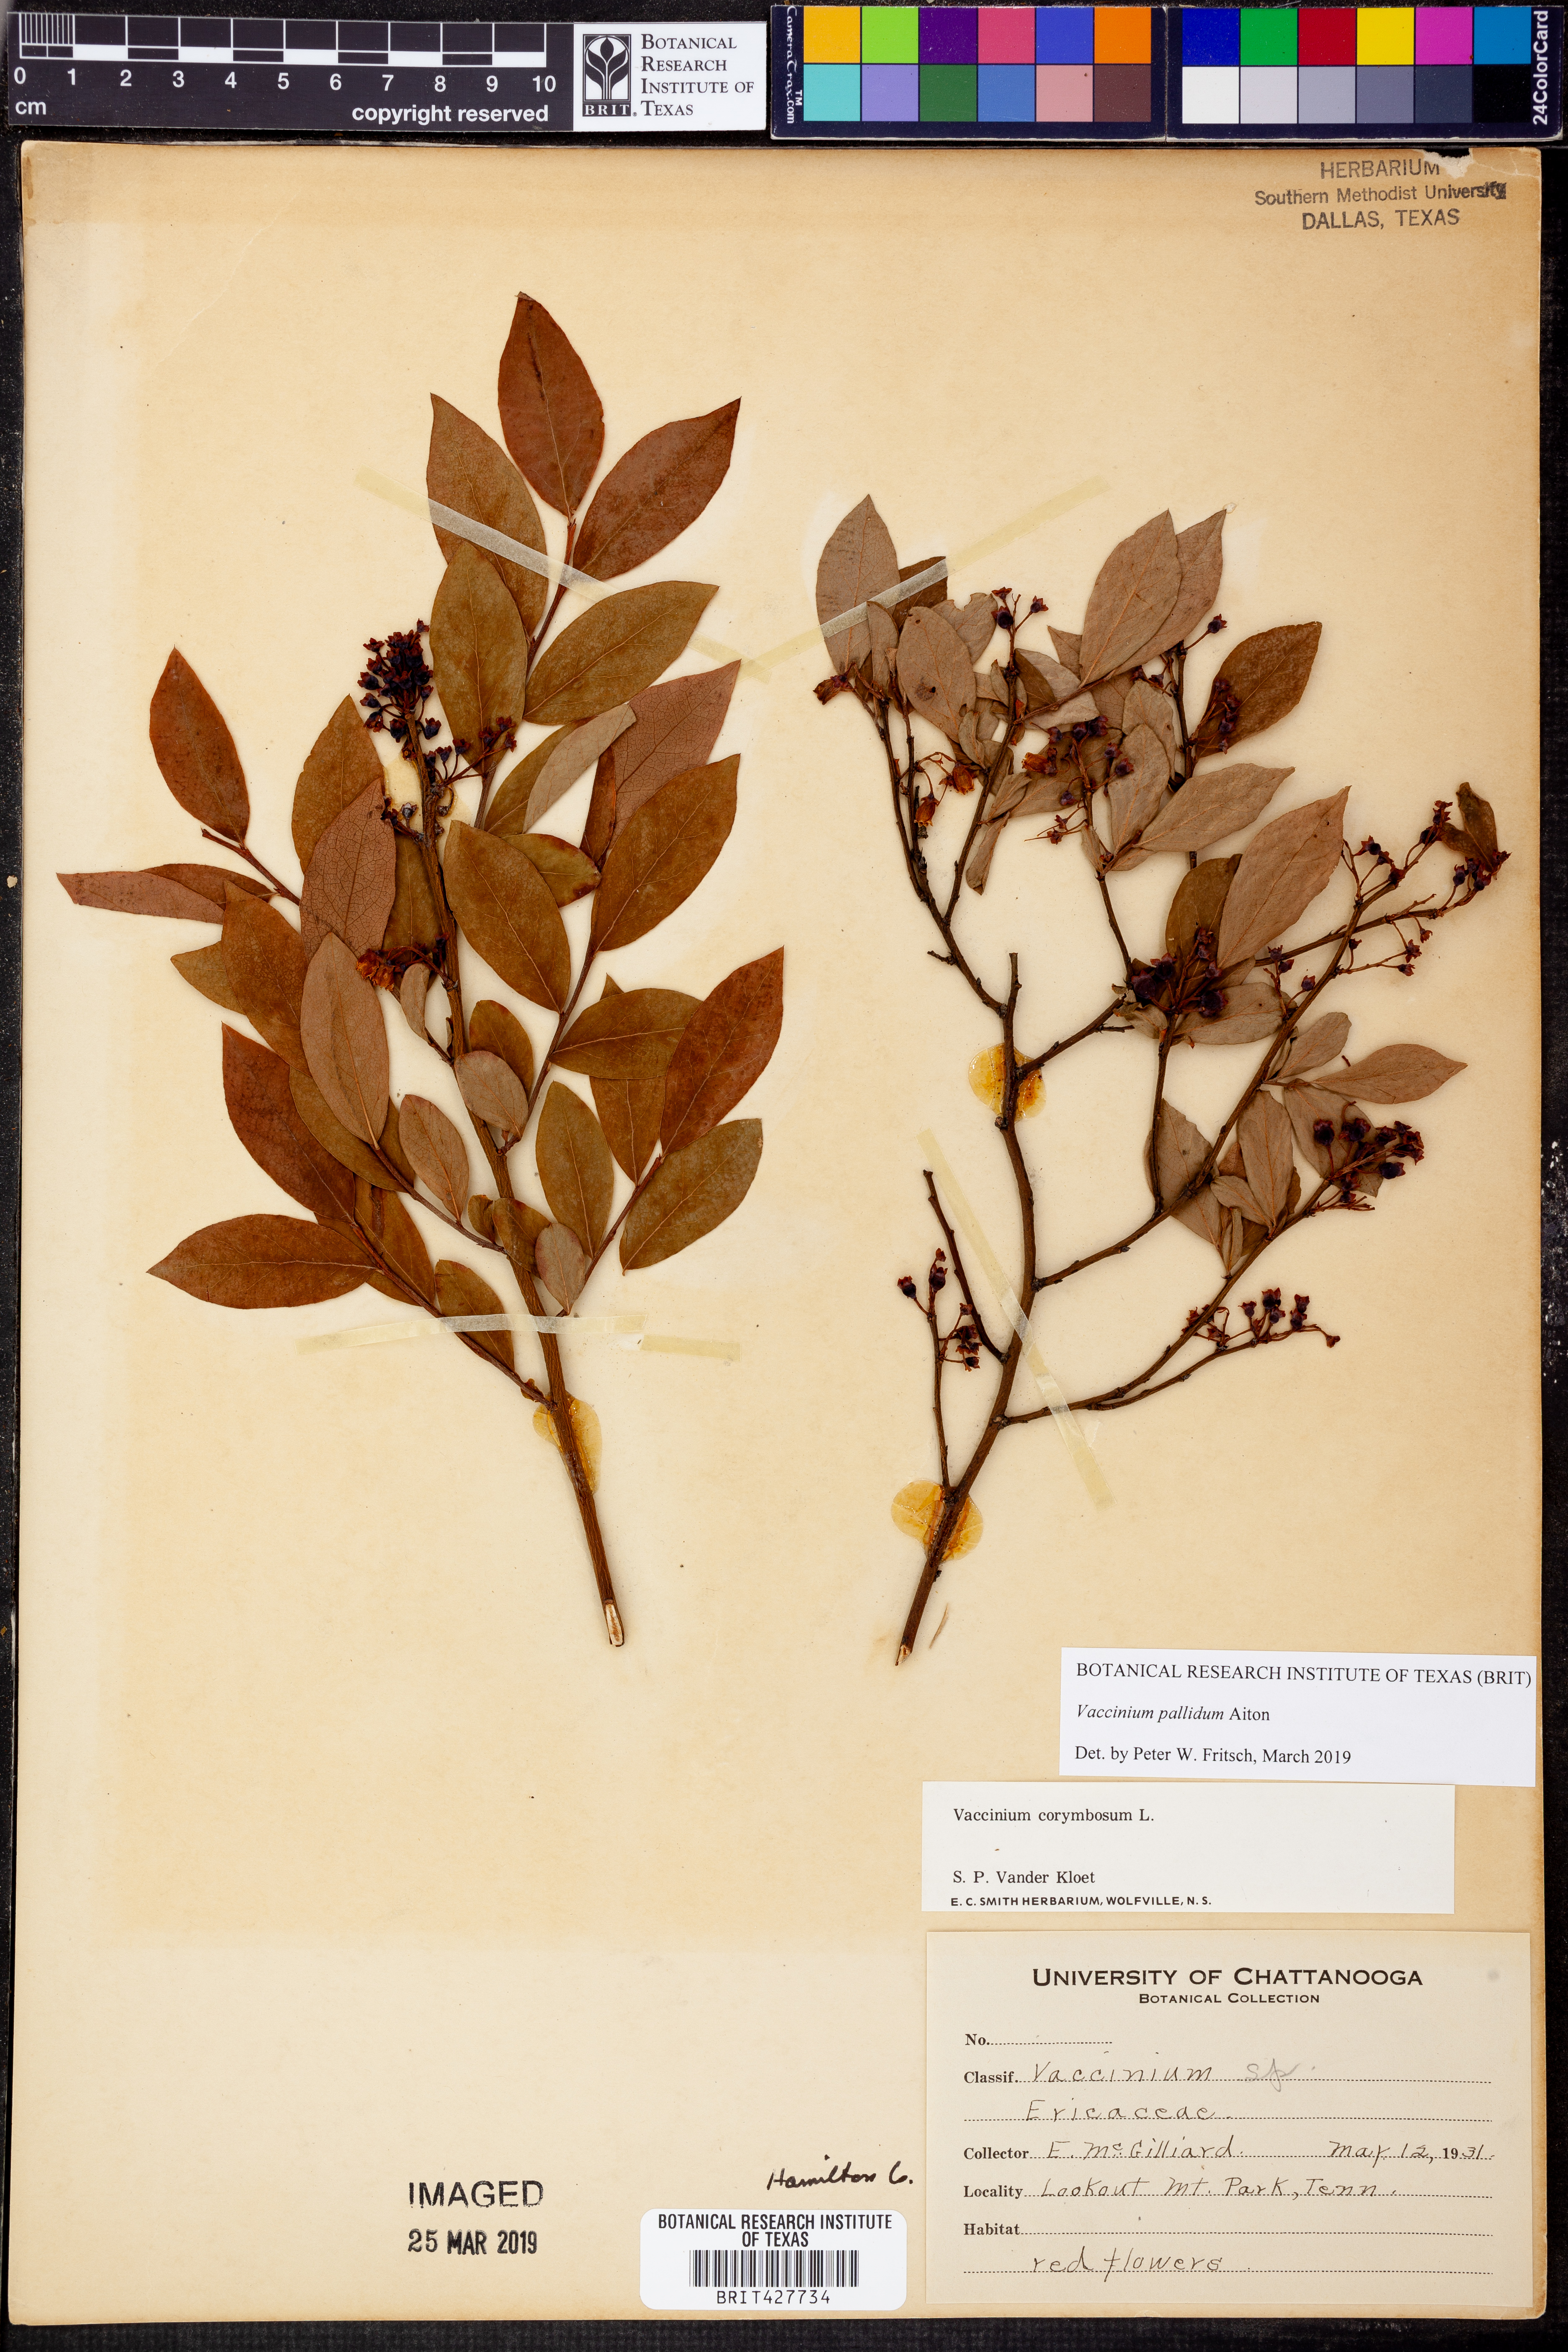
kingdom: Plantae
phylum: Tracheophyta
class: Magnoliopsida
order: Ericales
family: Ericaceae
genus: Vaccinium
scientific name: Vaccinium pallidum
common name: Blue ridge blueberry
